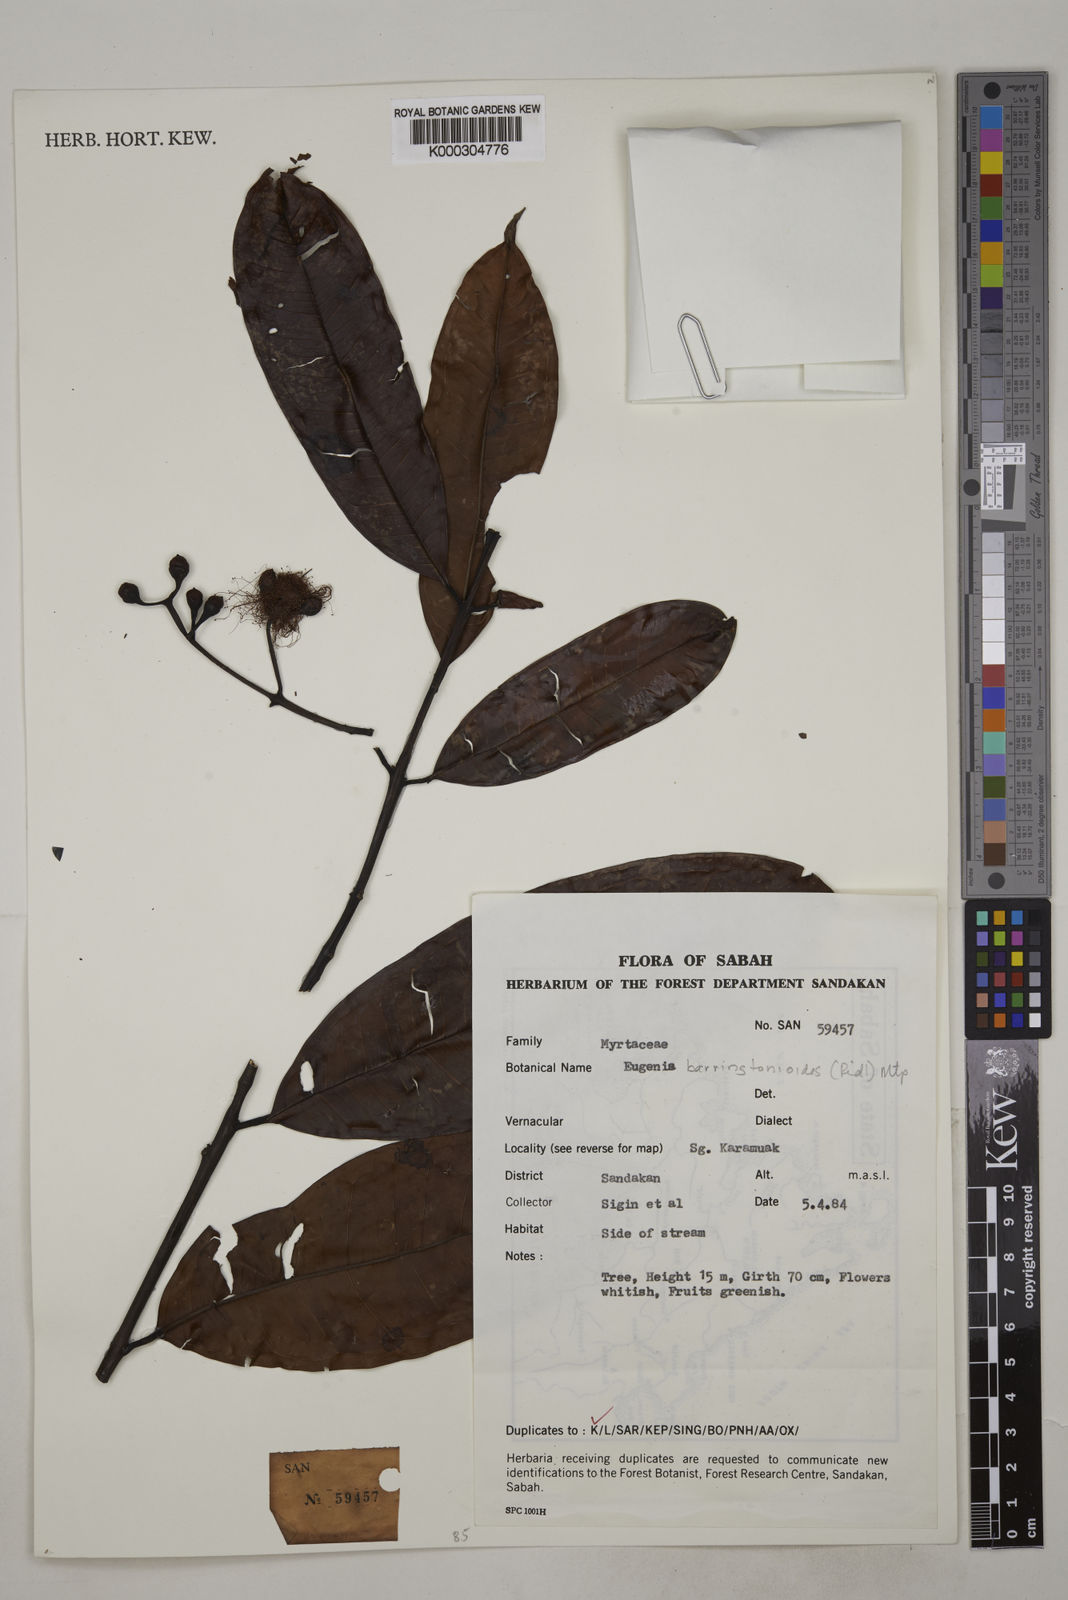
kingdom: Plantae
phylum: Tracheophyta
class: Magnoliopsida
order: Myrtales
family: Myrtaceae
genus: Syzygium
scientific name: Syzygium barringtonioides
